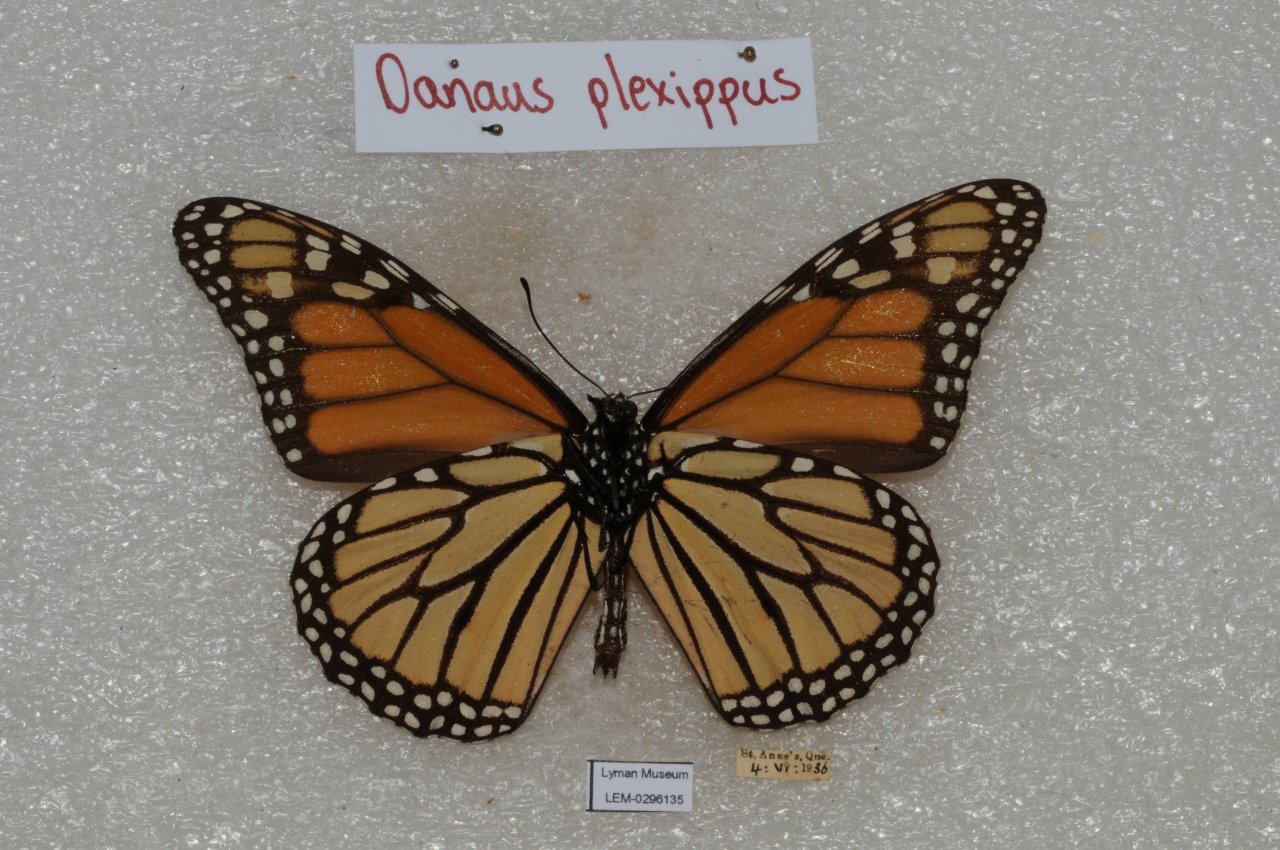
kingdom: Animalia
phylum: Arthropoda
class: Insecta
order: Lepidoptera
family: Nymphalidae
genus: Danaus
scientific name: Danaus plexippus
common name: Monarch
